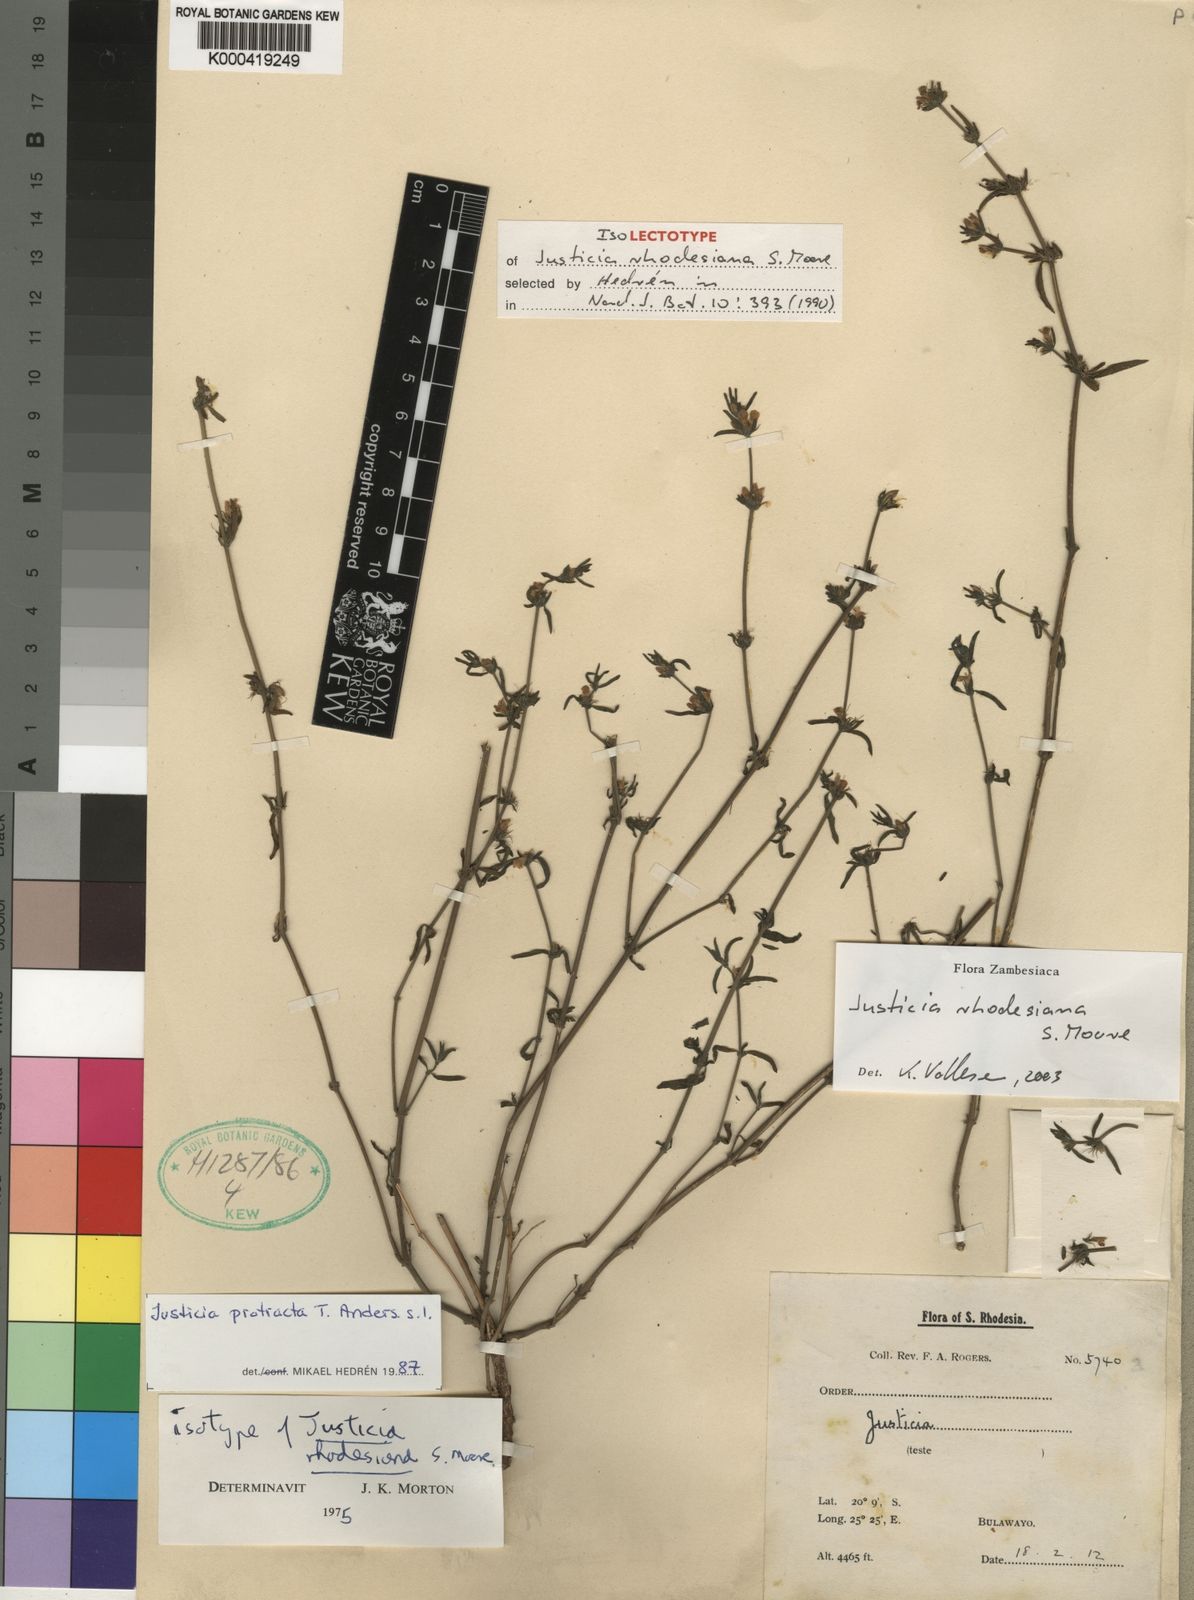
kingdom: Plantae
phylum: Tracheophyta
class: Magnoliopsida
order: Lamiales
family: Acanthaceae
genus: Justicia
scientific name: Justicia rhodesiana
